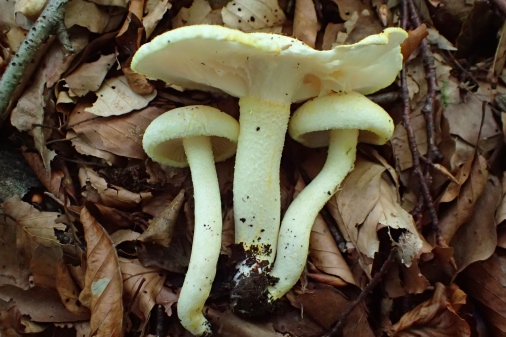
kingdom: Fungi
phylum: Basidiomycota
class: Agaricomycetes
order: Agaricales
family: Hygrophoraceae
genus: Hygrophorus
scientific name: Hygrophorus chrysodon
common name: gulfnugget sneglehat
